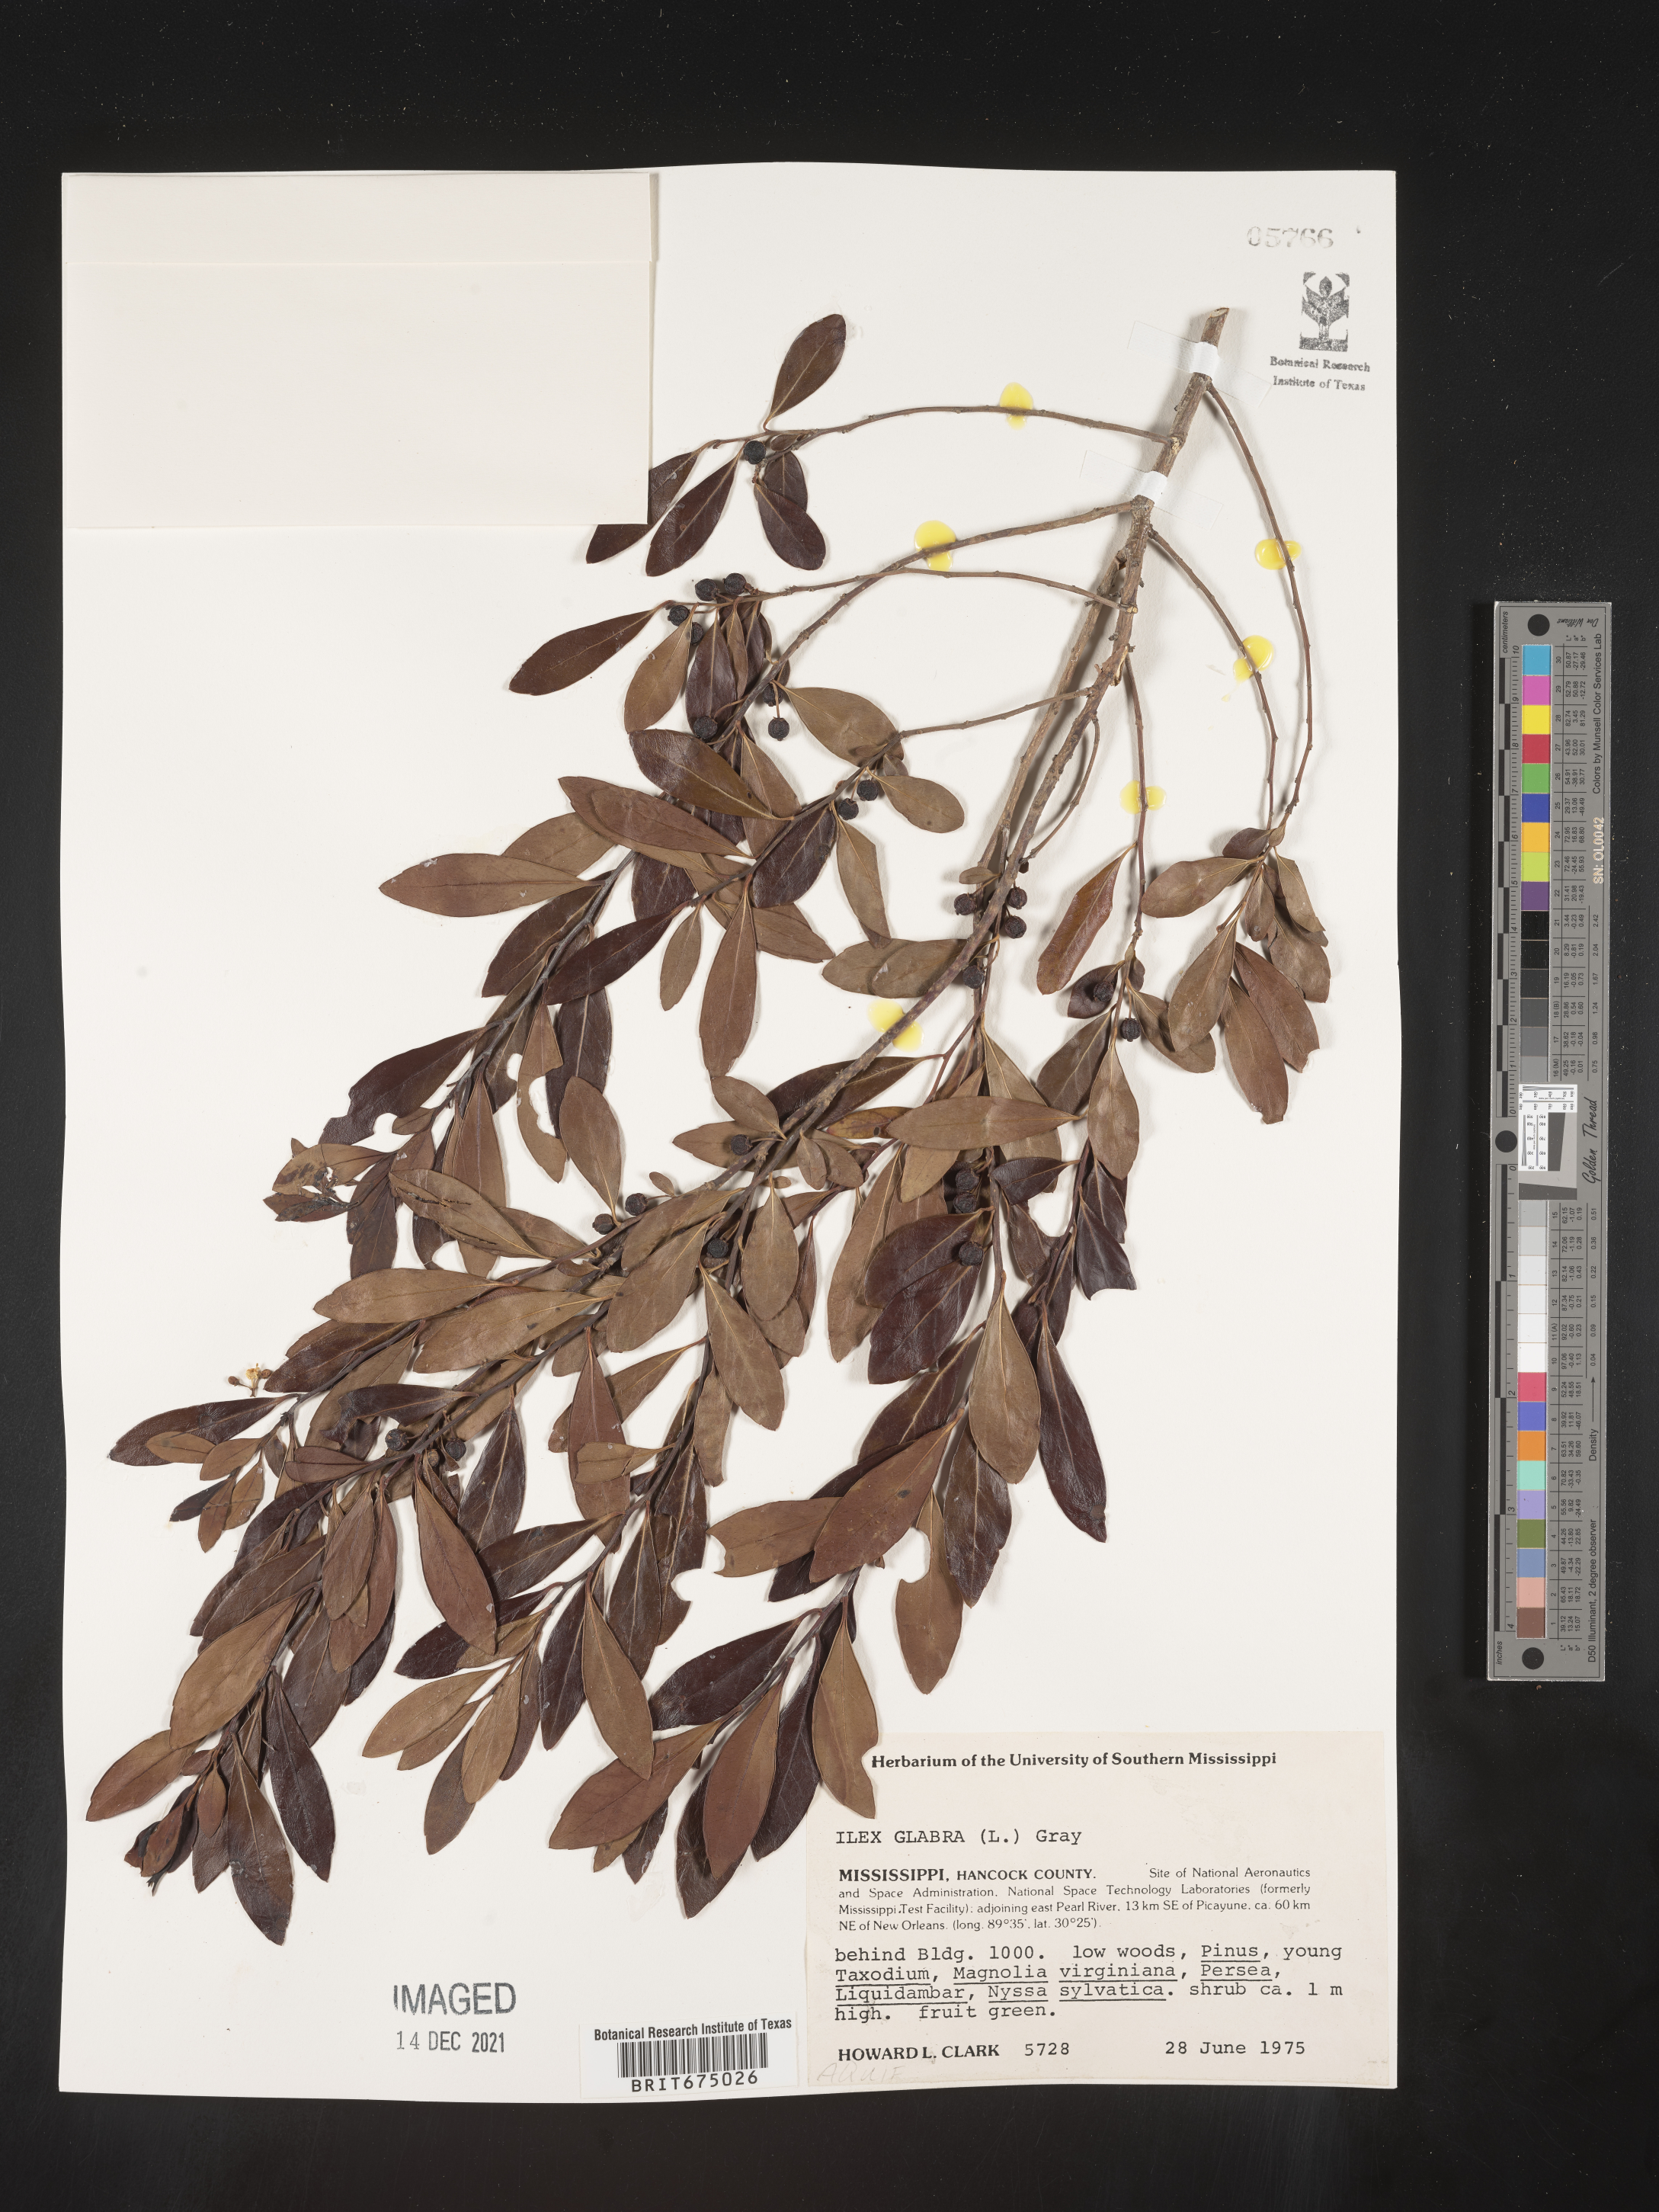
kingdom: Plantae
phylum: Tracheophyta
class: Magnoliopsida
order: Aquifoliales
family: Aquifoliaceae
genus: Ilex
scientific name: Ilex glabra
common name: Bitter gallberry
